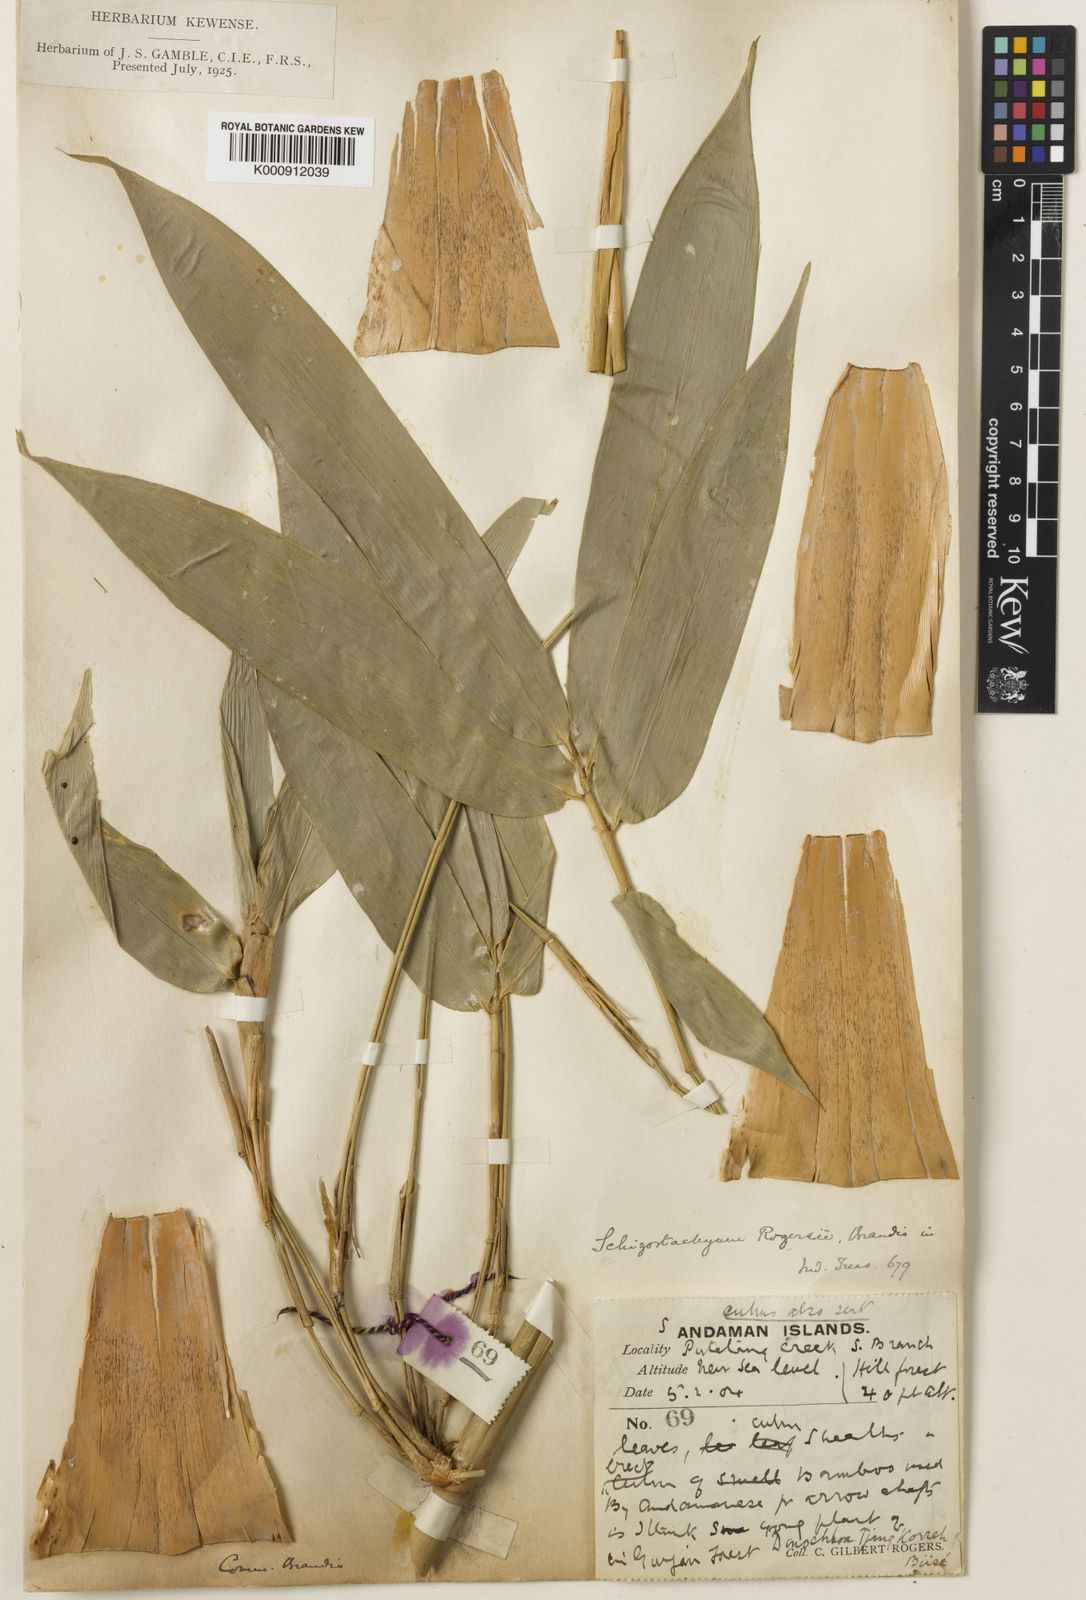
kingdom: Plantae
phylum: Tracheophyta
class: Liliopsida
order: Poales
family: Poaceae
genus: Schizostachyum
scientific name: Schizostachyum rogersii
